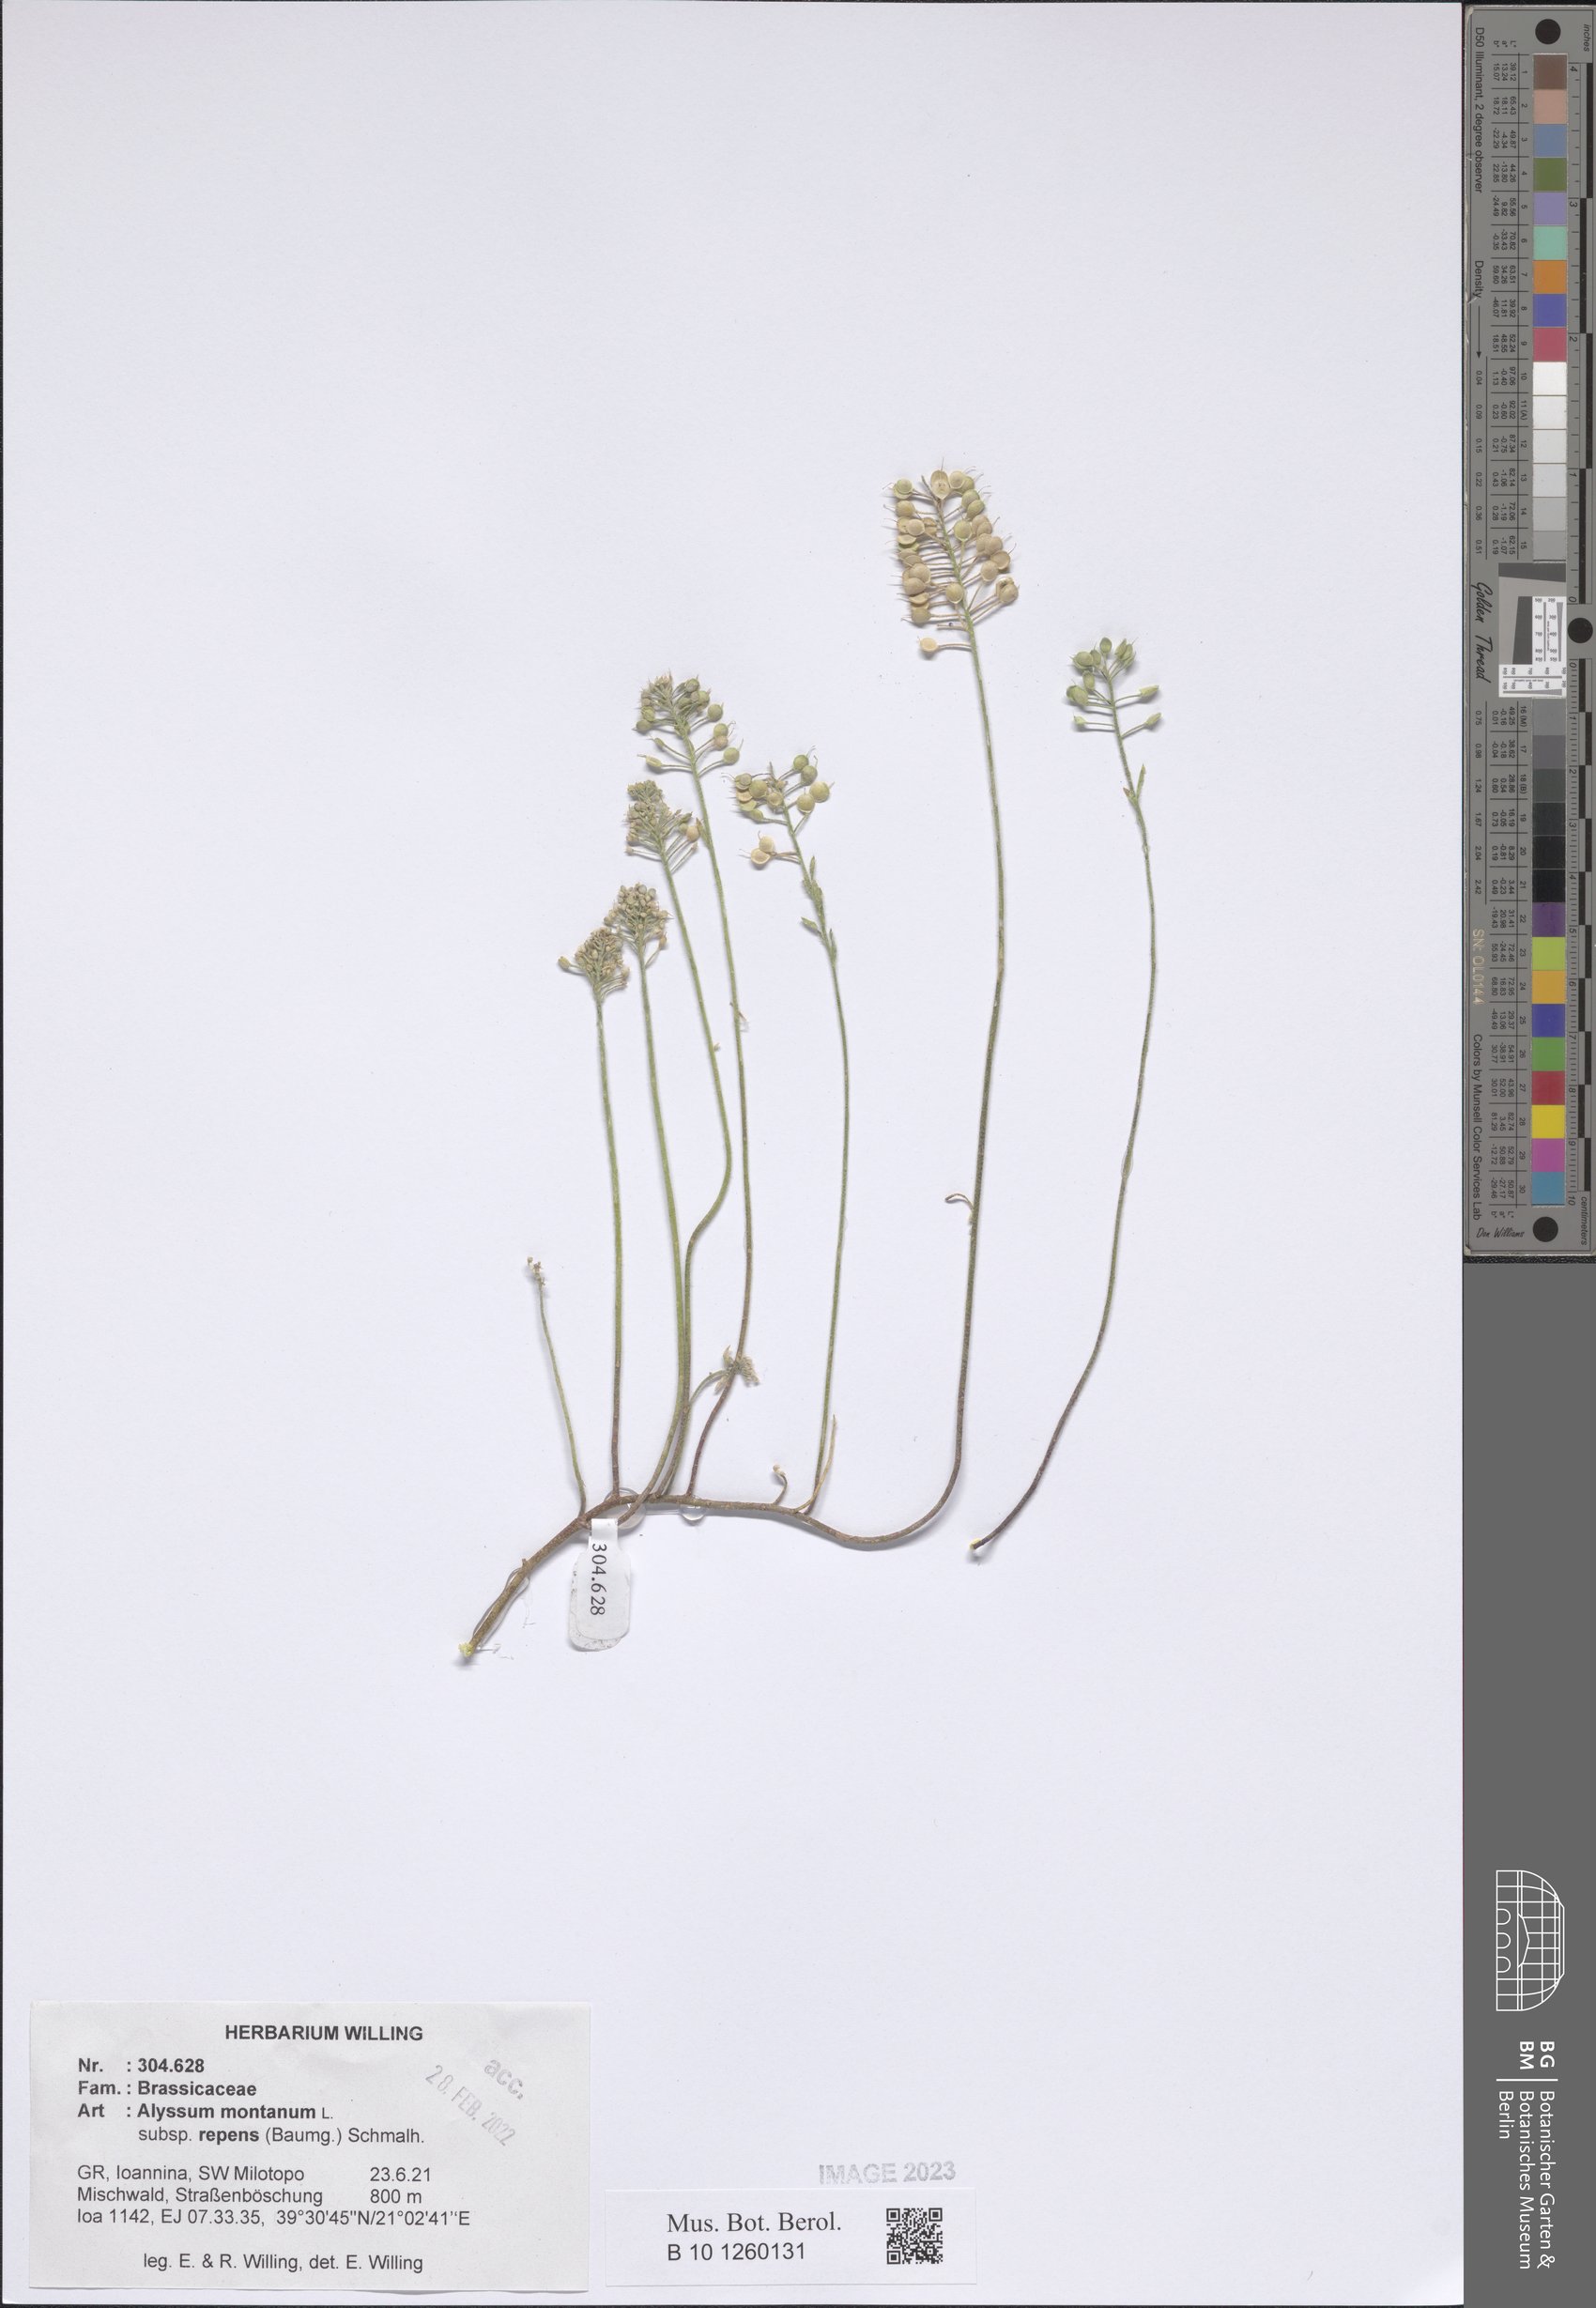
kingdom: Plantae
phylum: Tracheophyta
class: Magnoliopsida
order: Brassicales
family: Brassicaceae
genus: Alyssum
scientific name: Alyssum trichostachyum
